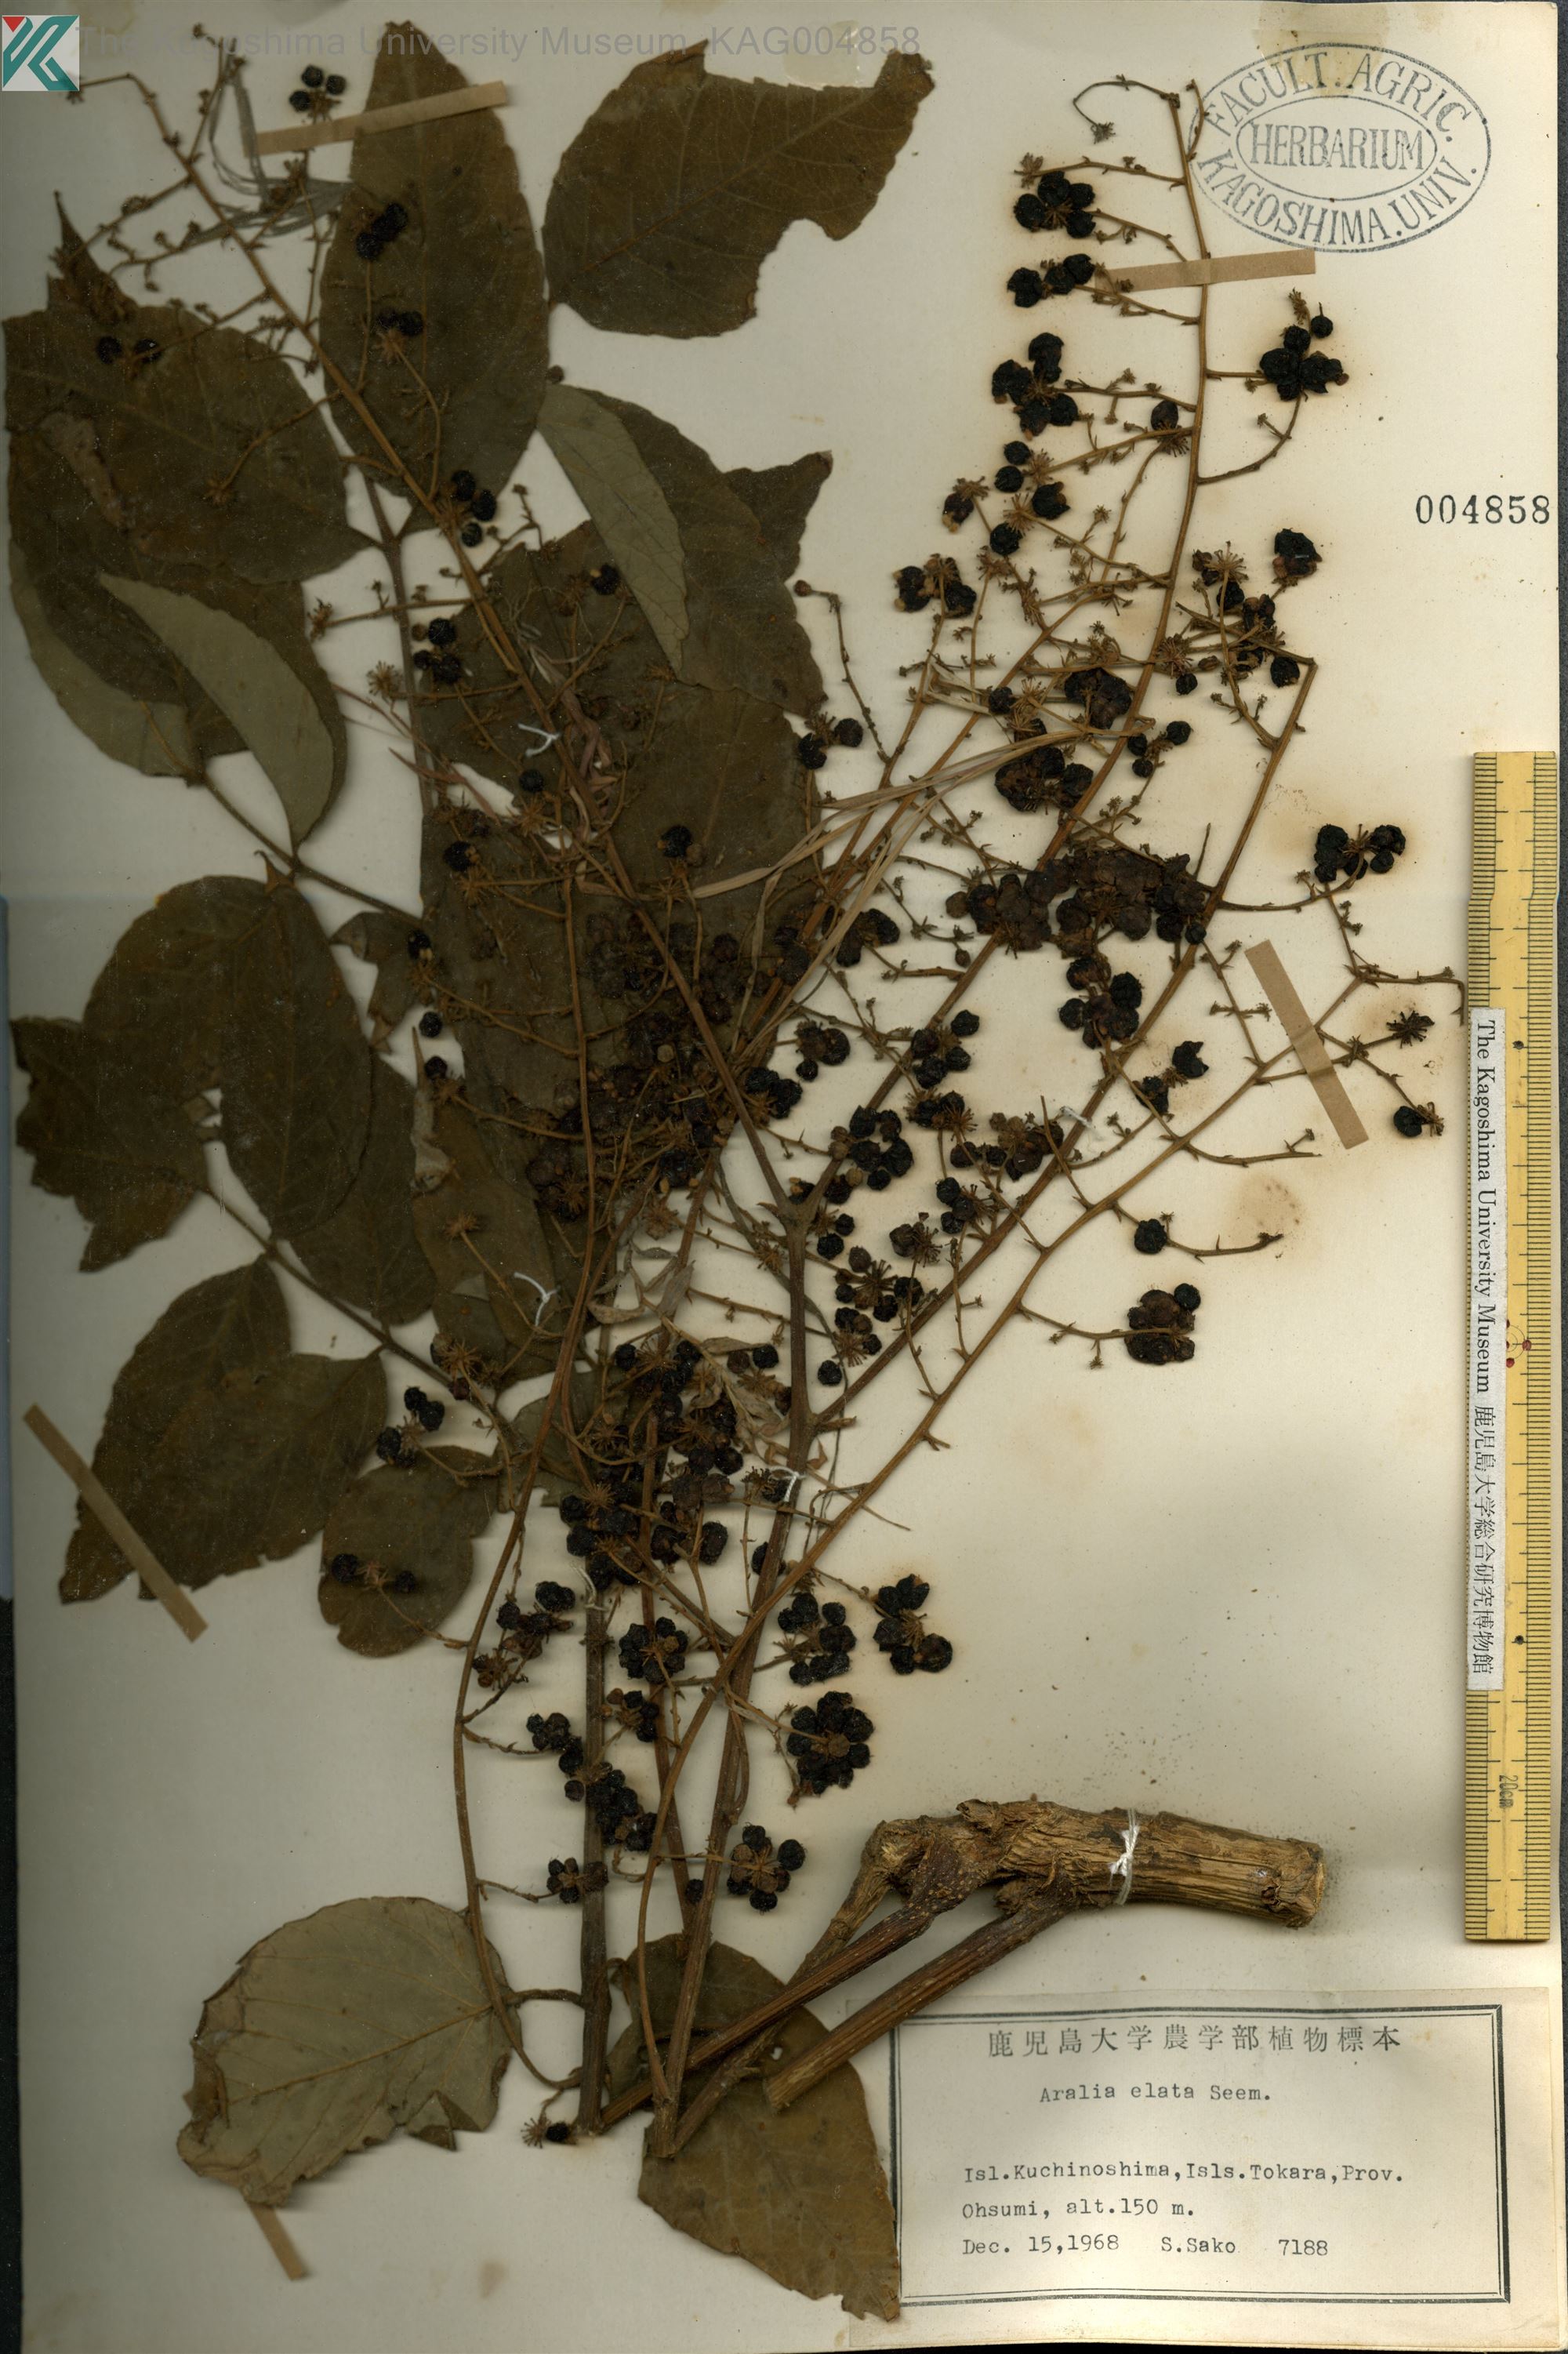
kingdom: Plantae
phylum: Tracheophyta
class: Magnoliopsida
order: Apiales
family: Araliaceae
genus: Aralia
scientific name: Aralia elata
